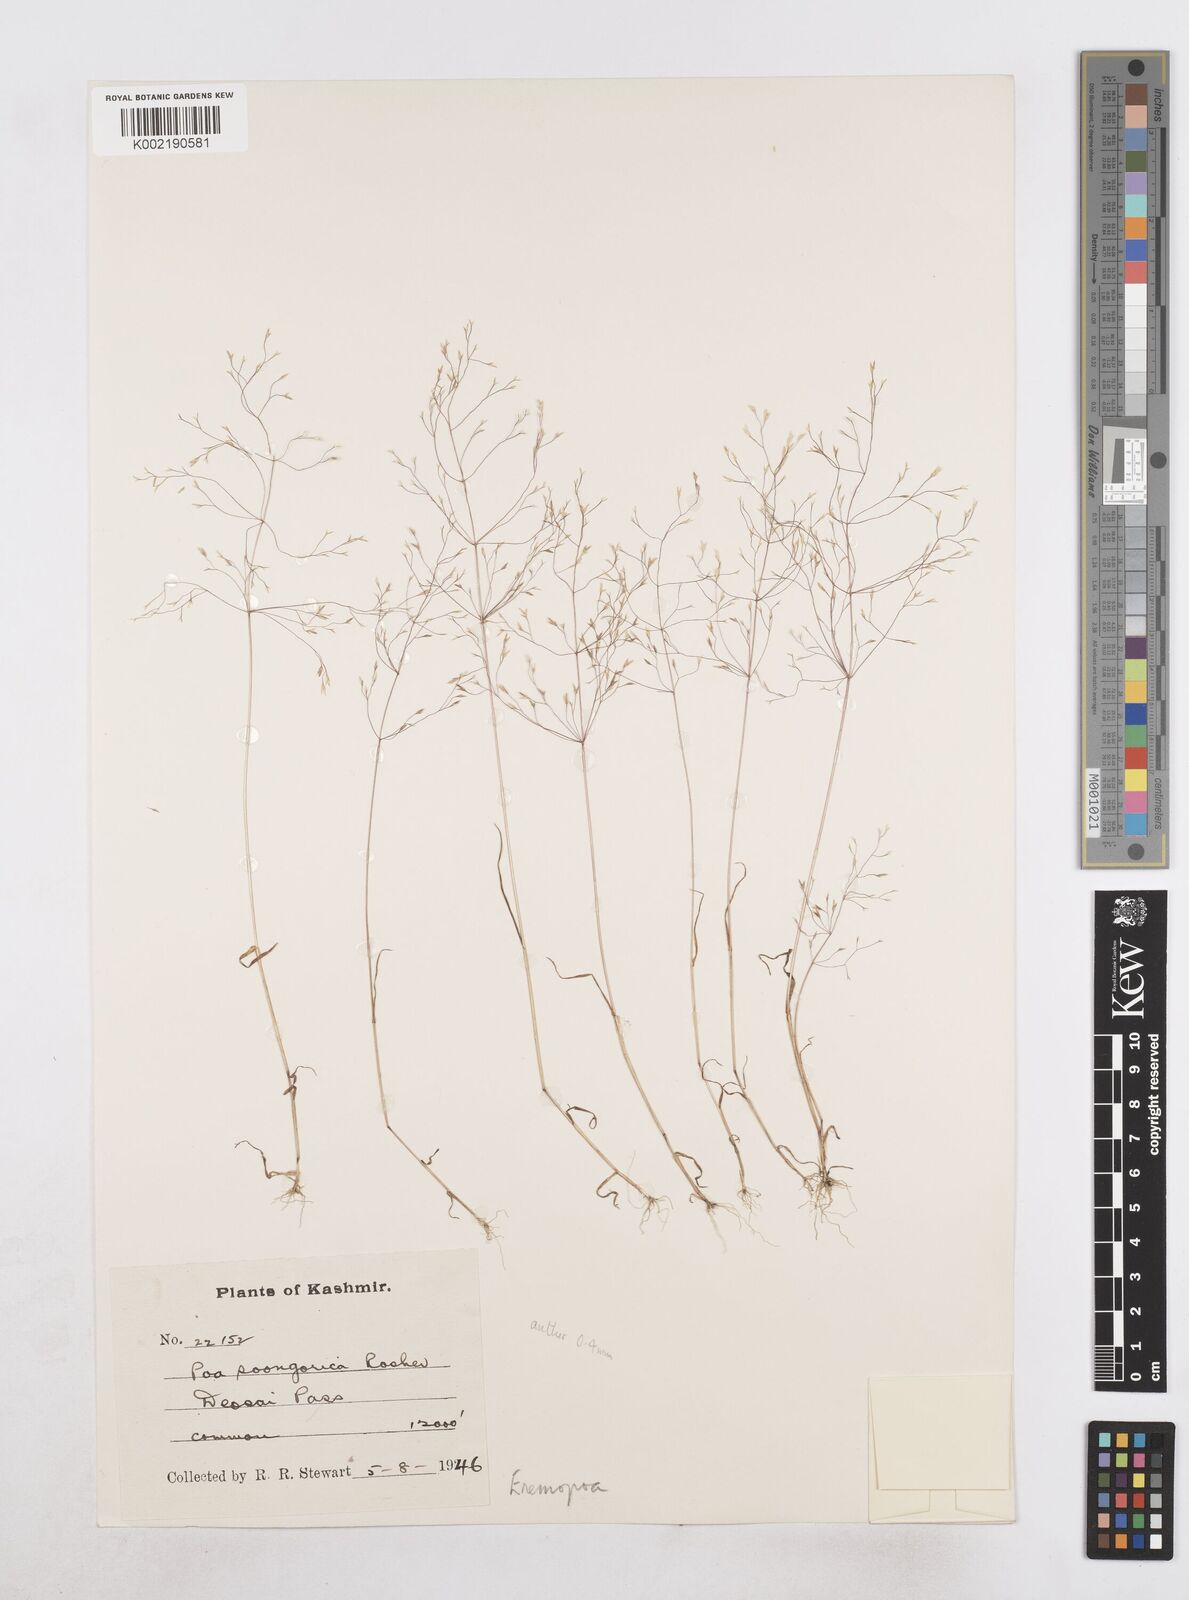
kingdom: Plantae
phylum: Tracheophyta
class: Liliopsida
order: Poales
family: Poaceae
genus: Poa
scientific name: Poa diaphora
